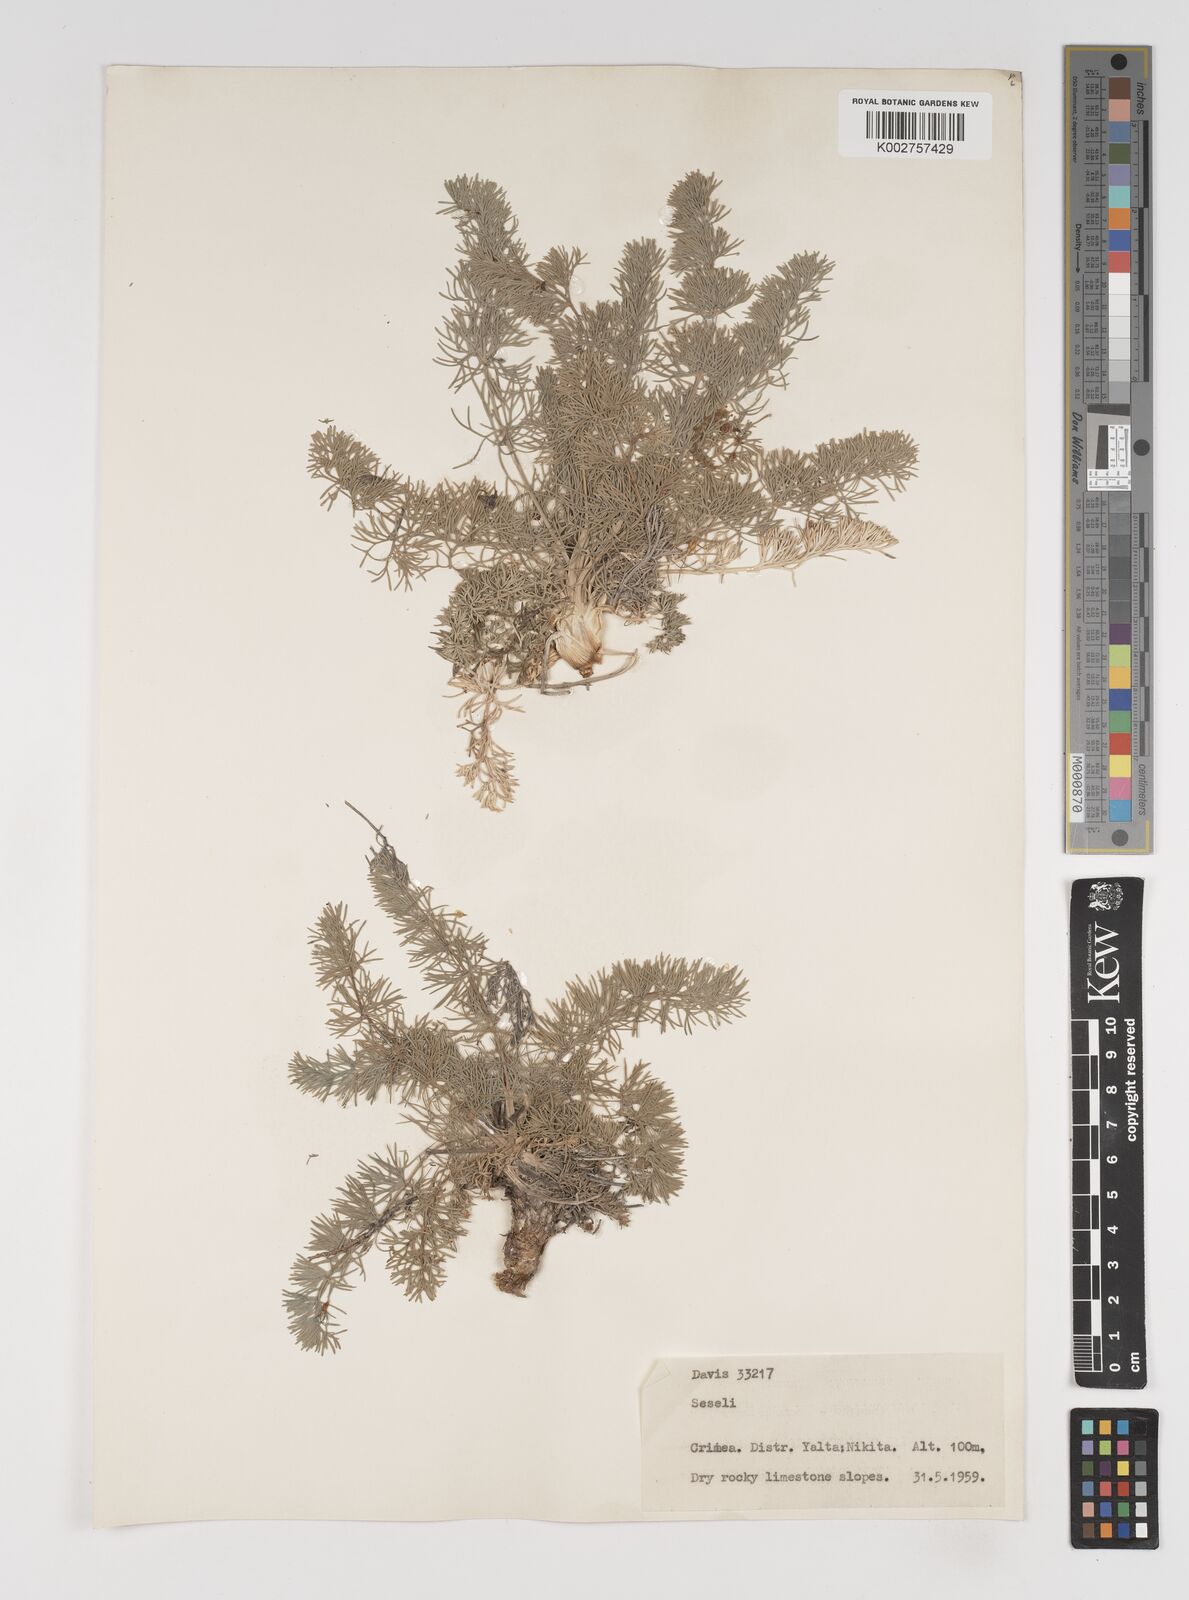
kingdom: Plantae
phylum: Tracheophyta
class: Magnoliopsida
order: Apiales
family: Apiaceae
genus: Seseli
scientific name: Seseli
